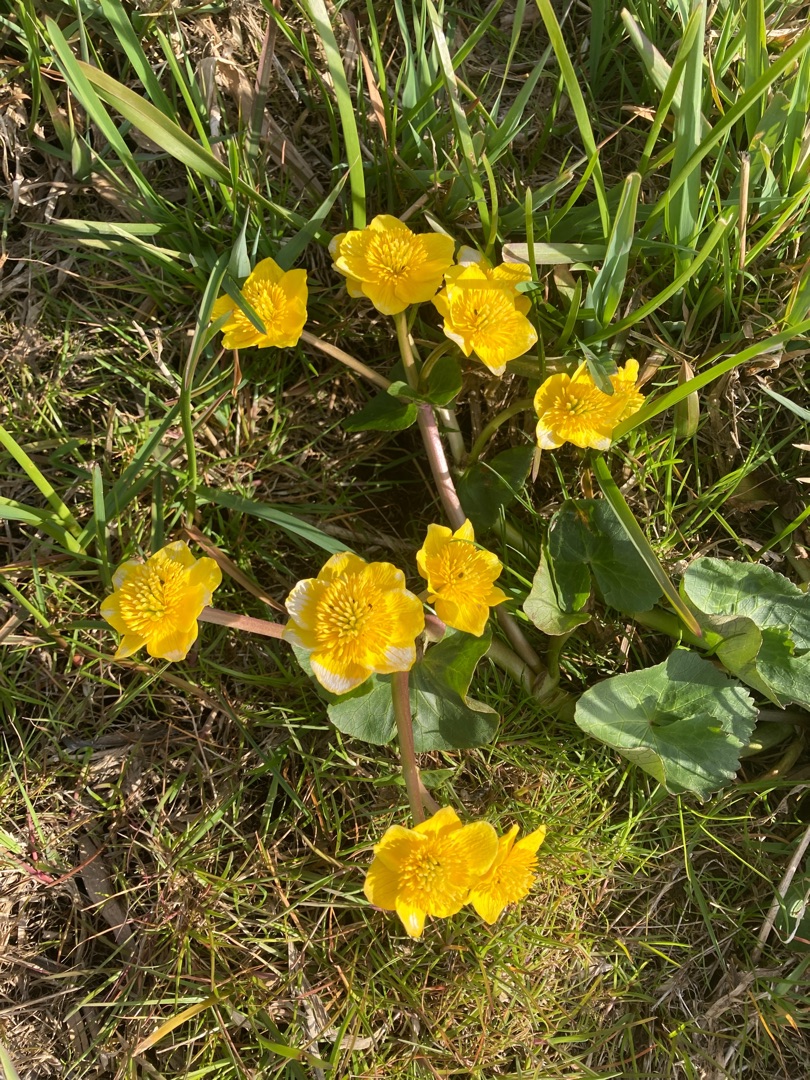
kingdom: Plantae
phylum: Tracheophyta
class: Magnoliopsida
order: Ranunculales
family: Ranunculaceae
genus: Caltha
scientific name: Caltha palustris
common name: Eng-kabbeleje
